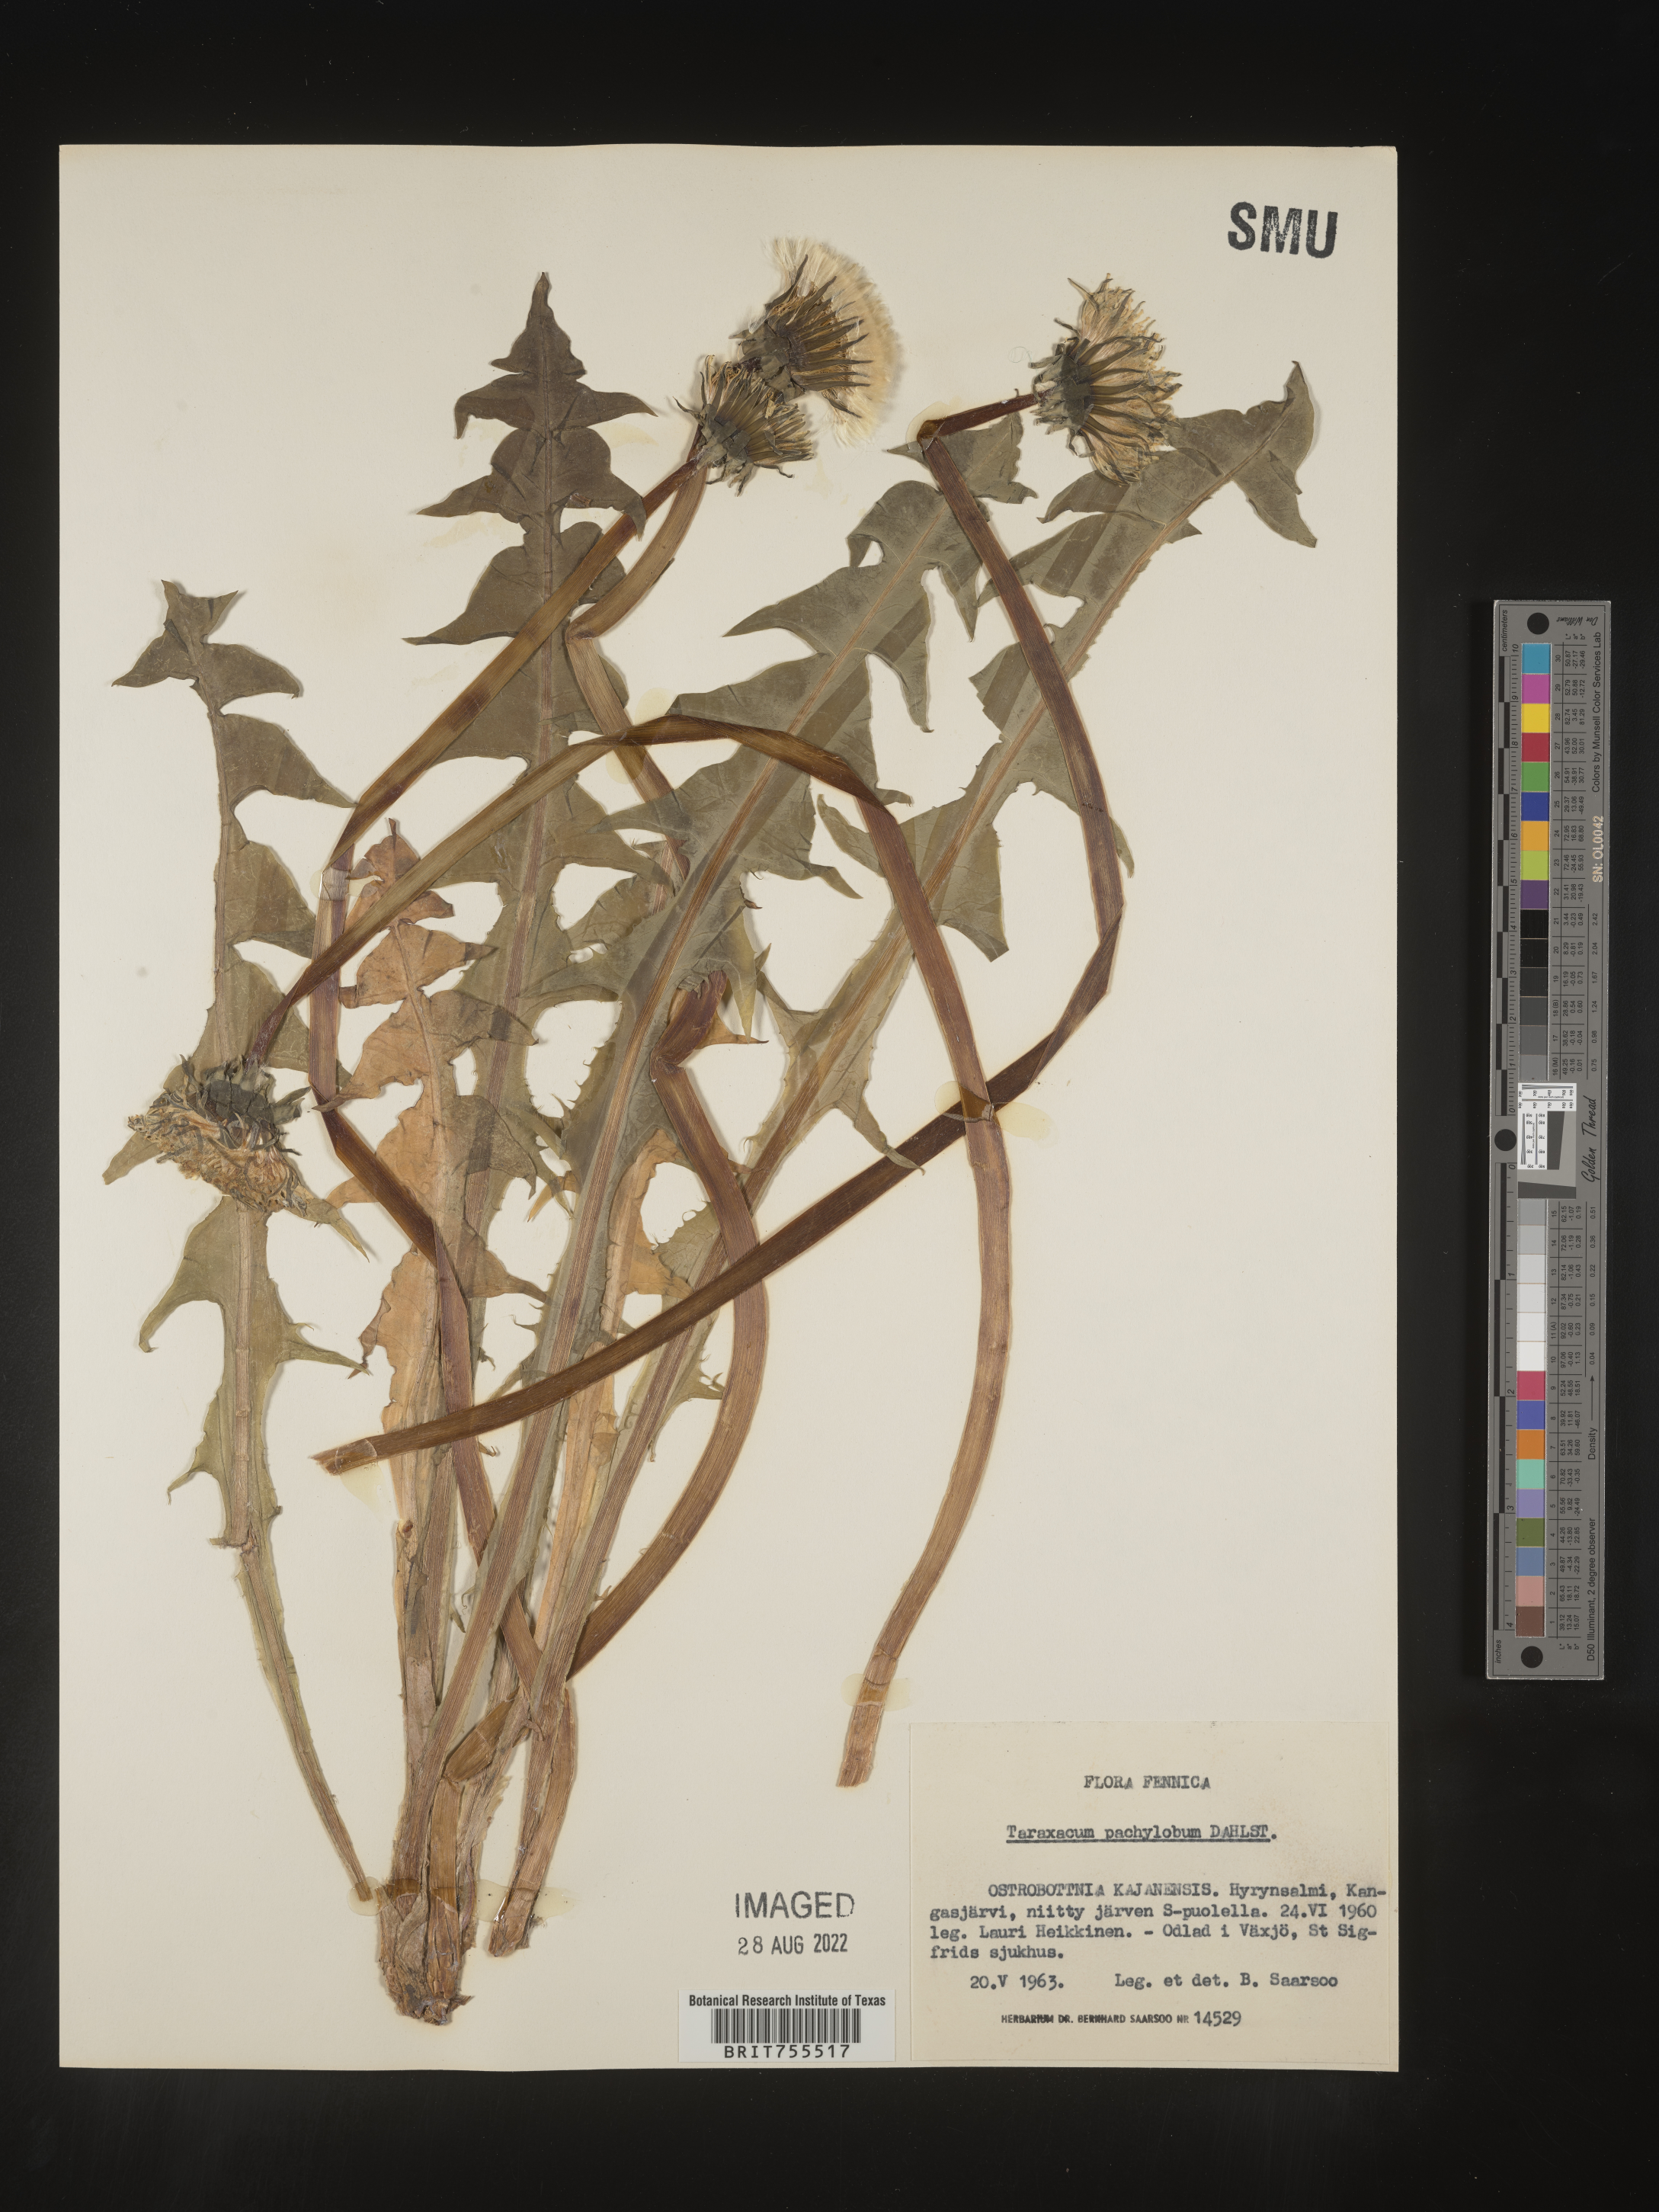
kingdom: Plantae
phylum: Tracheophyta
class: Magnoliopsida
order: Asterales
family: Asteraceae
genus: Taraxacum
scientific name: Taraxacum
